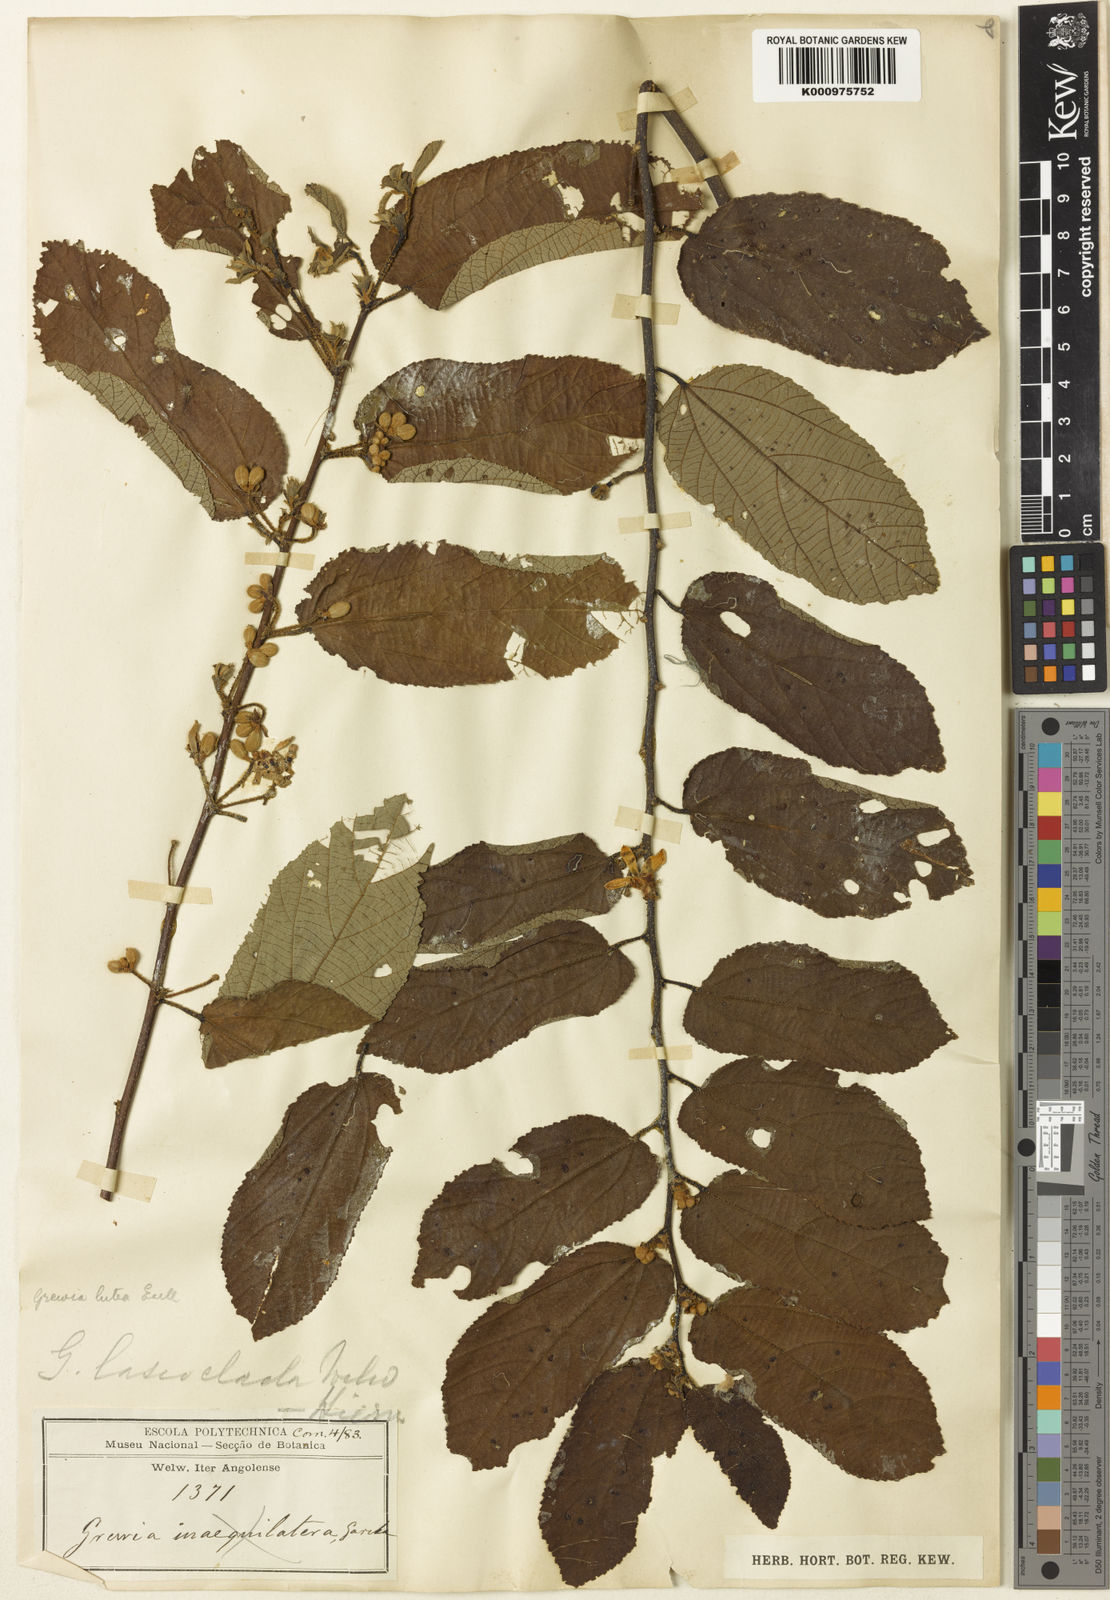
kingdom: Plantae
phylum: Tracheophyta
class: Magnoliopsida
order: Malvales
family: Malvaceae
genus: Grewia
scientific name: Grewia lutea
